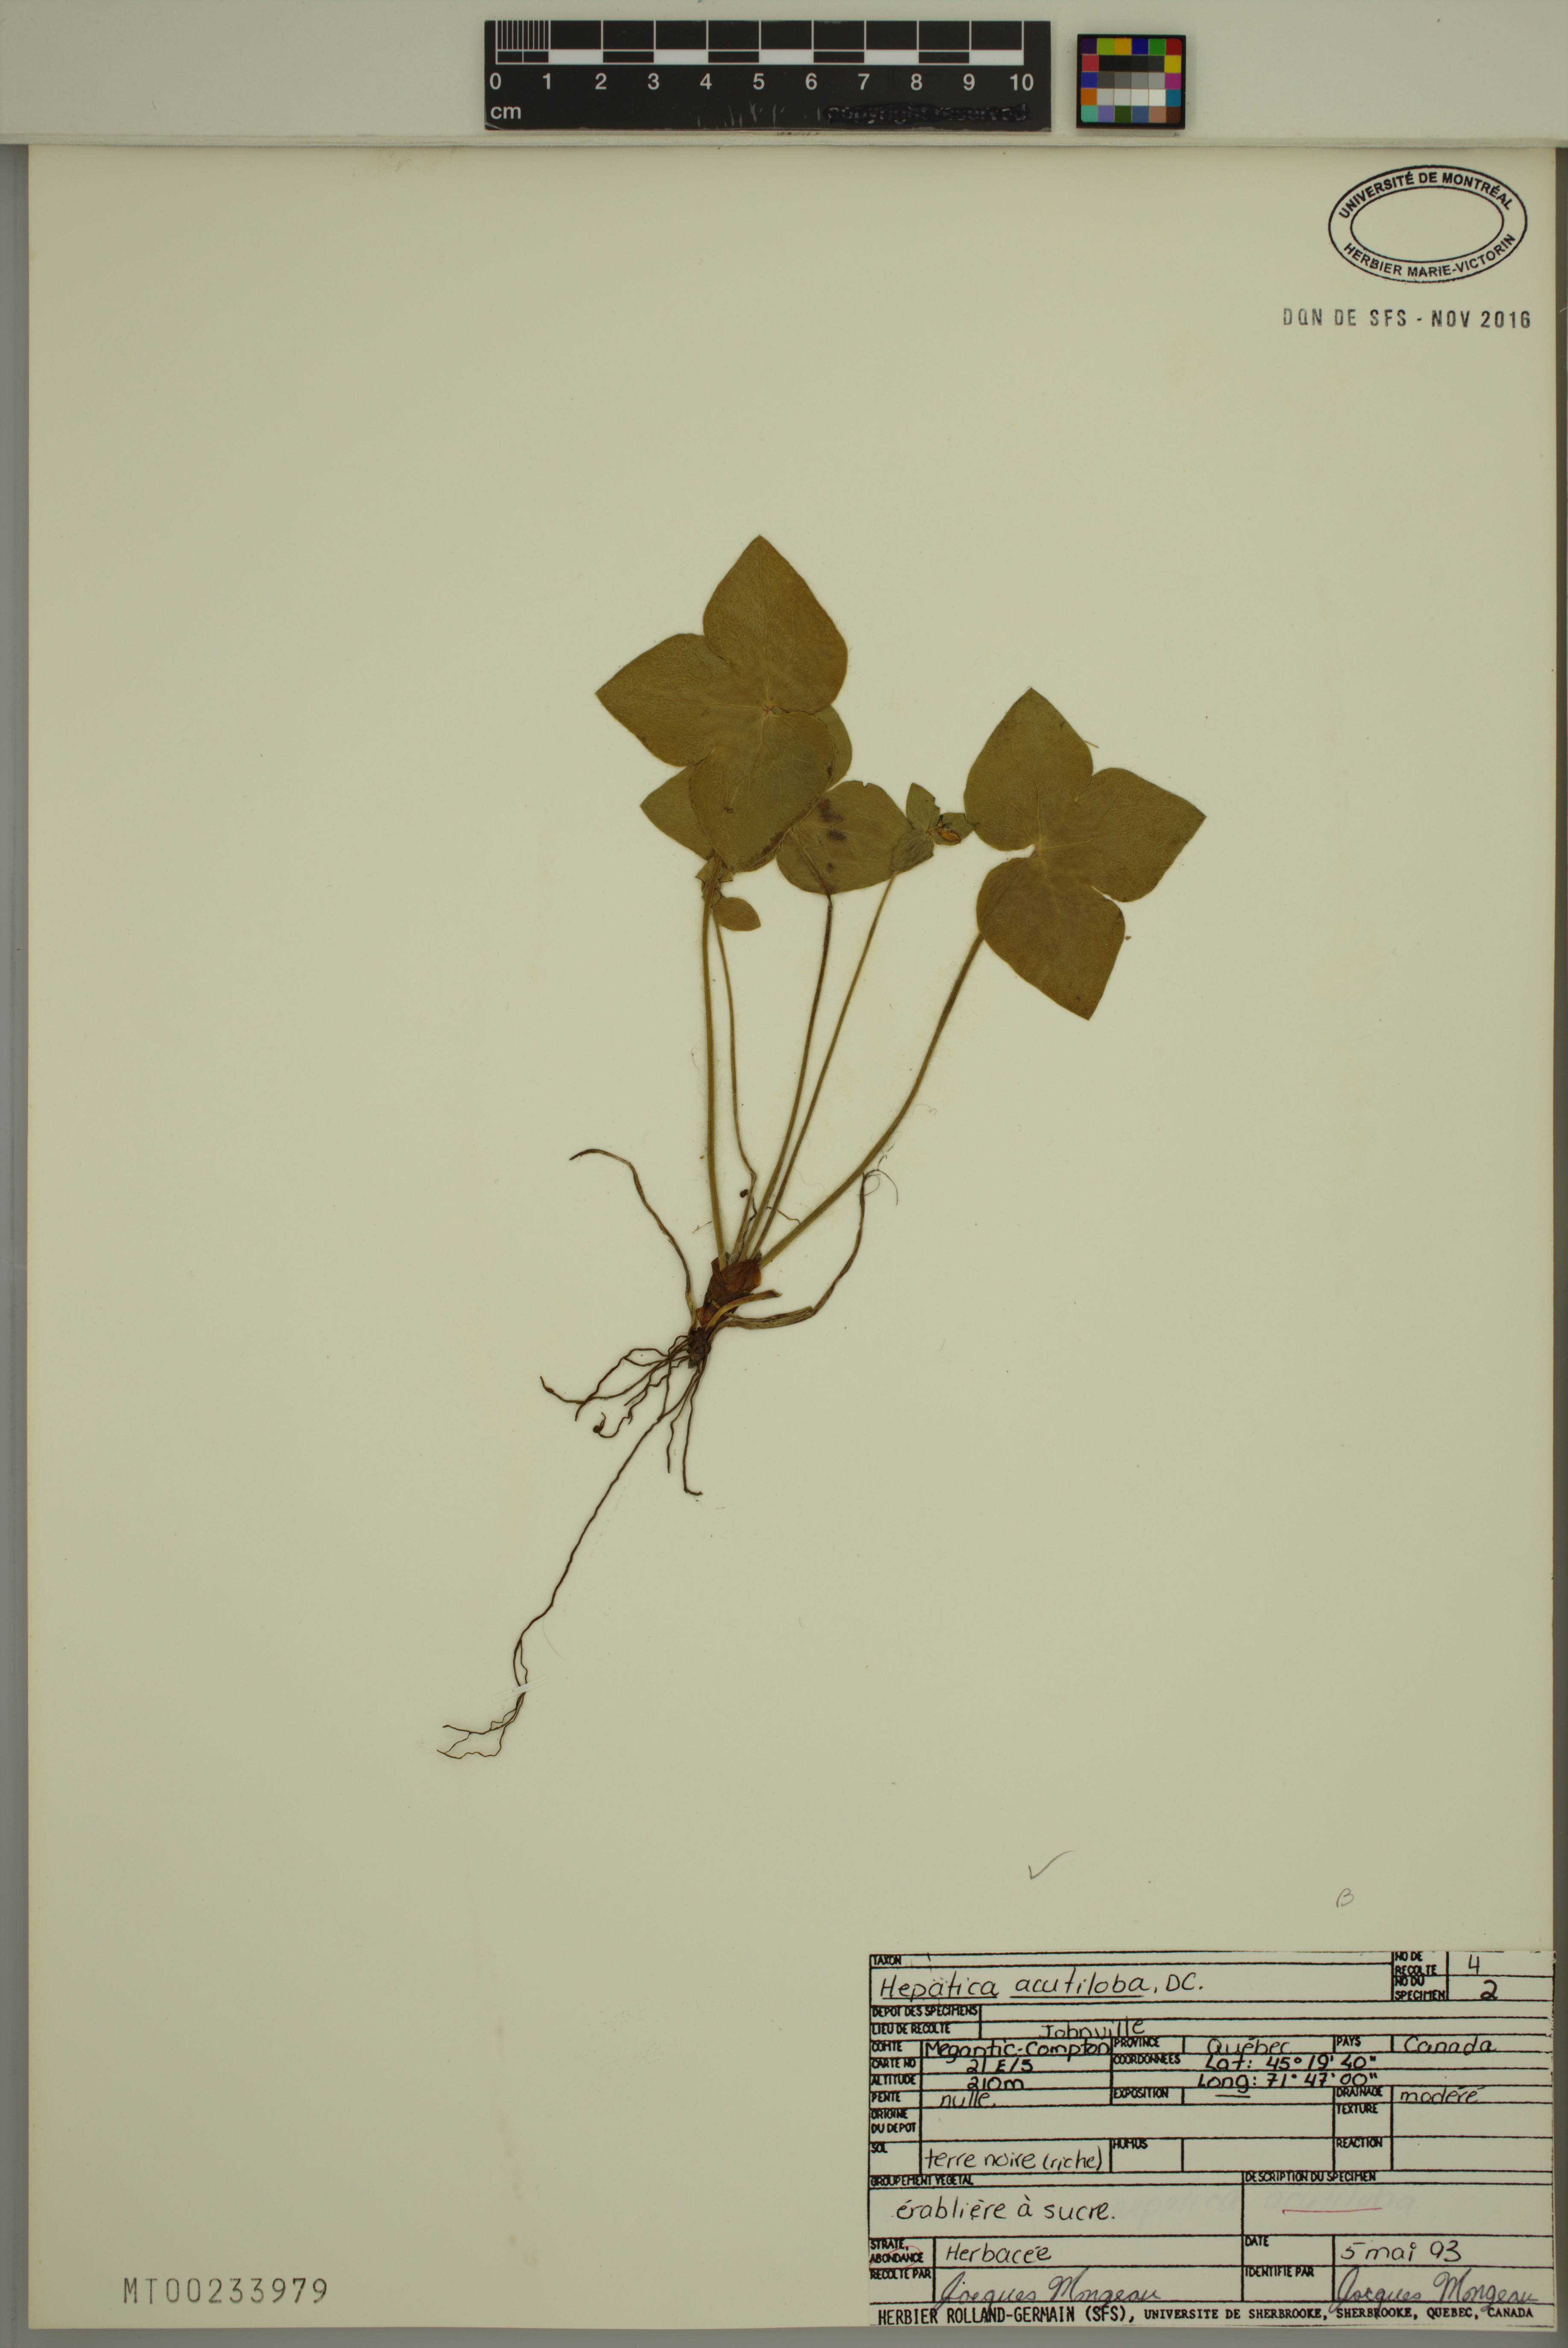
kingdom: Plantae
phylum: Tracheophyta
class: Magnoliopsida
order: Ranunculales
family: Ranunculaceae
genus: Hepatica
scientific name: Hepatica acutiloba
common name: Sharp-lobed hepatica
